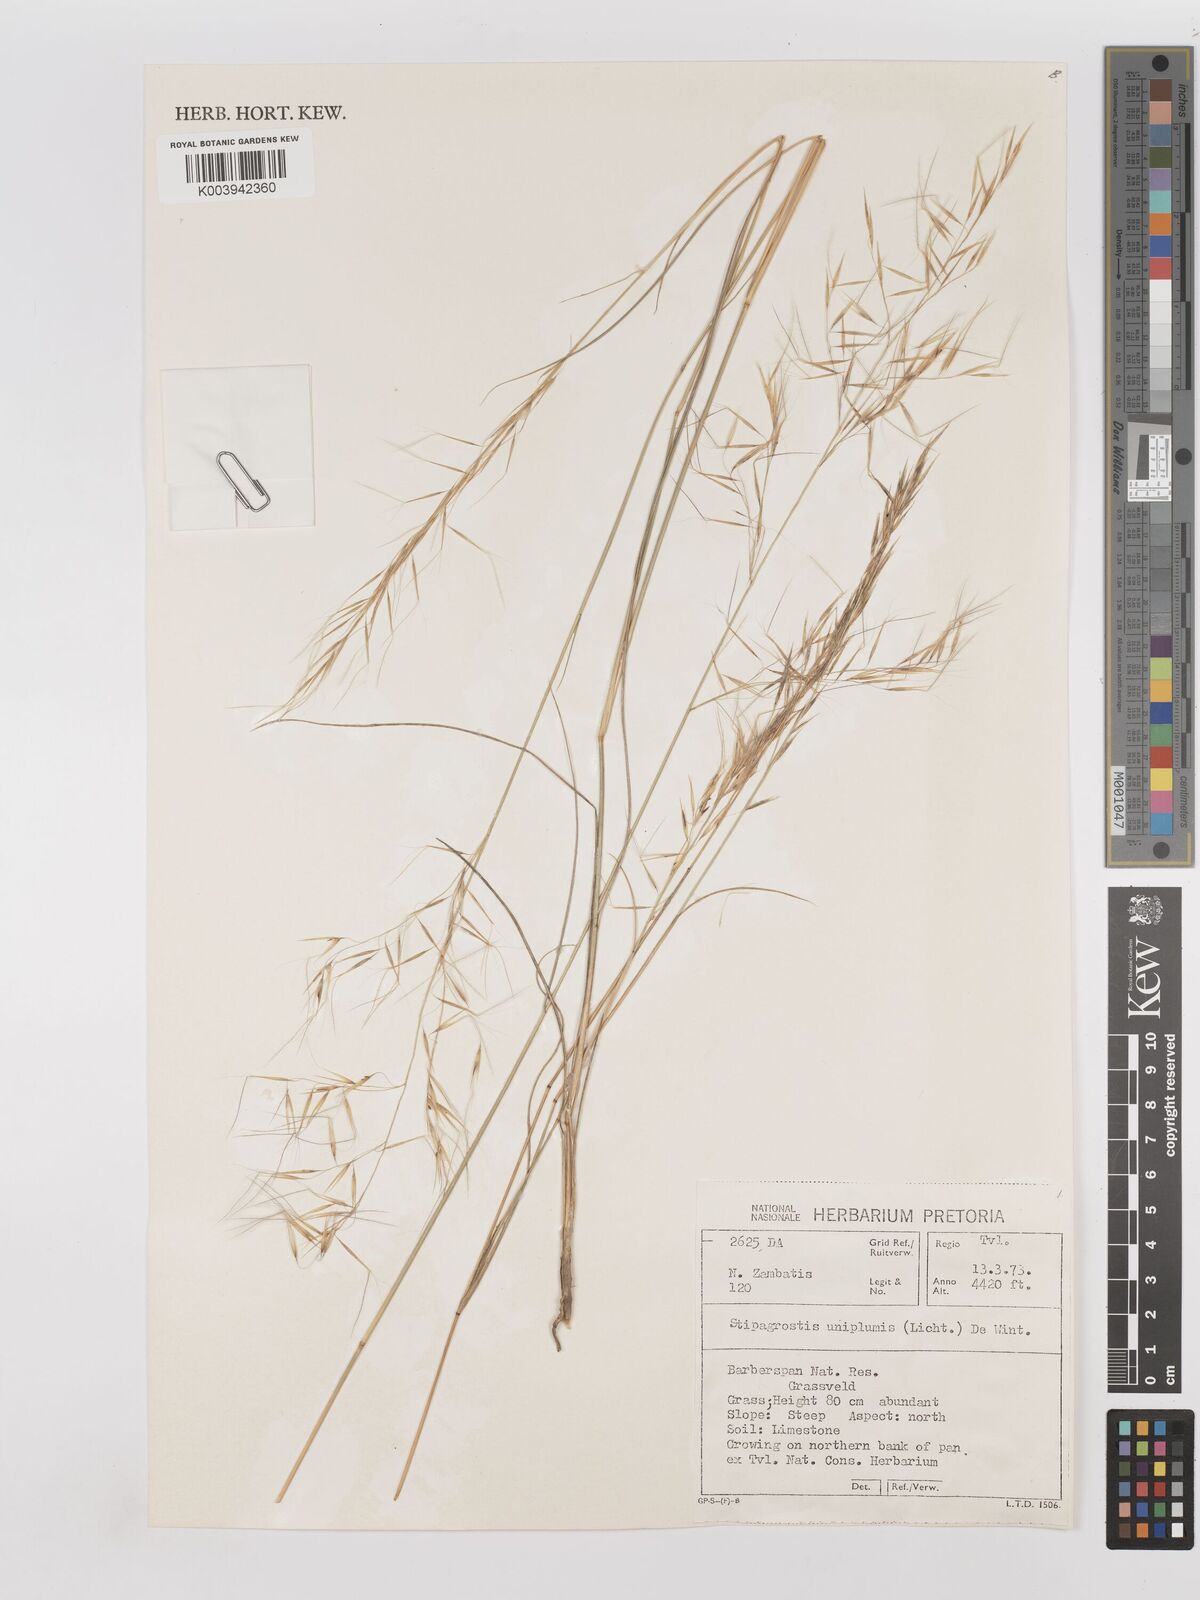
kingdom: Plantae
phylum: Tracheophyta
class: Liliopsida
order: Poales
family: Poaceae
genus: Stipagrostis
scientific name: Stipagrostis uniplumis
